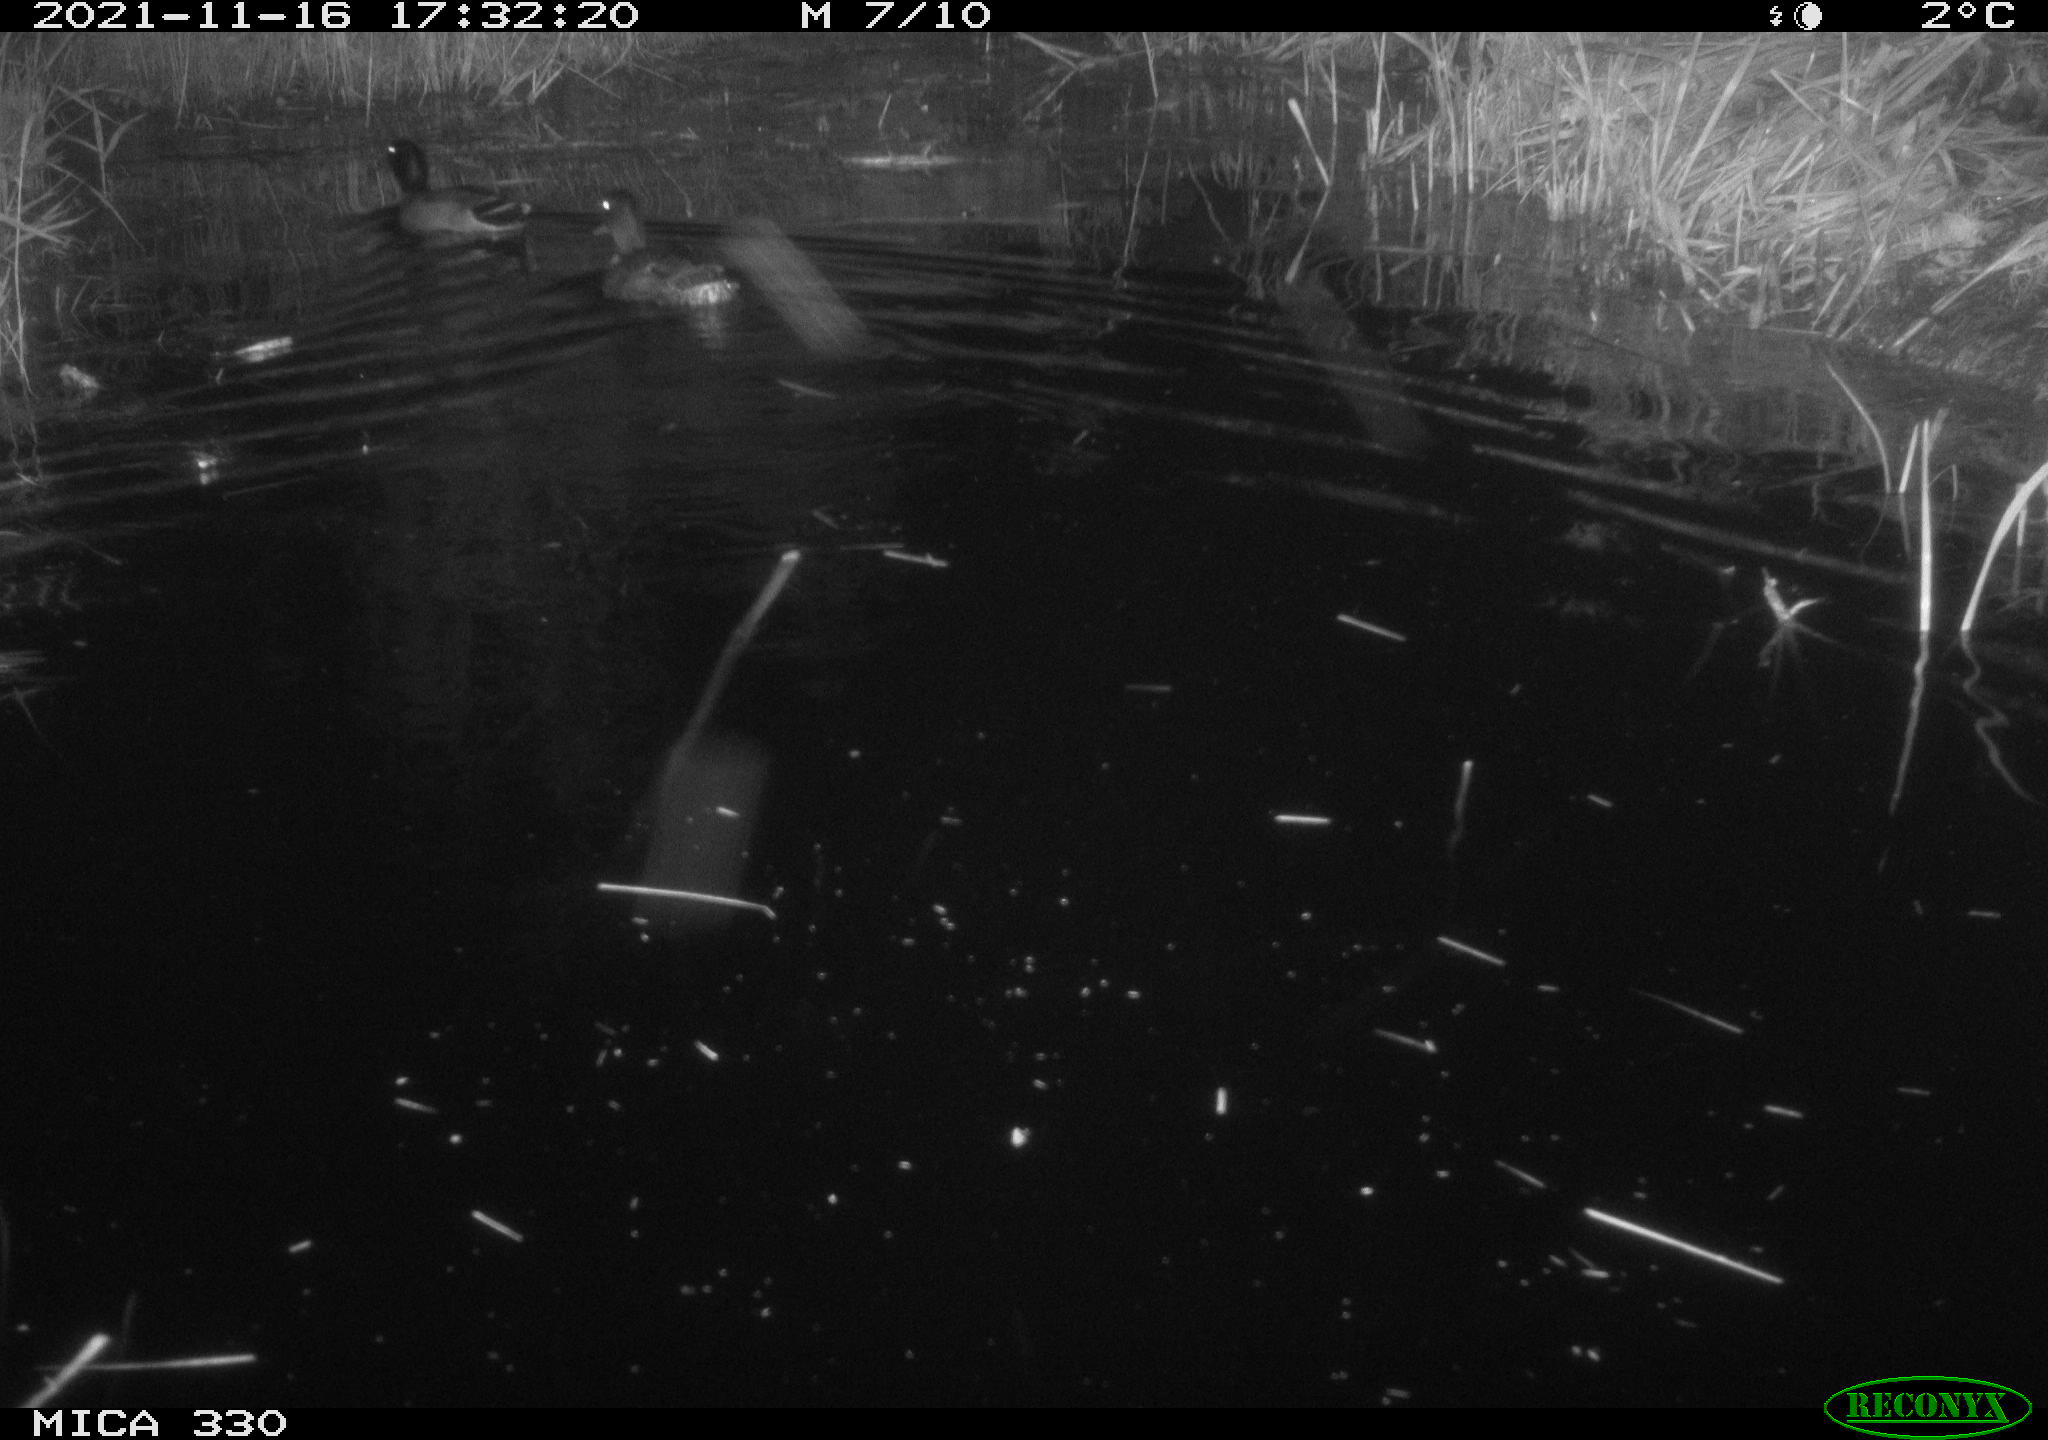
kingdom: Animalia
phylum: Chordata
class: Aves
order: Anseriformes
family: Anatidae
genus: Anas
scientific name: Anas platyrhynchos
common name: Mallard
